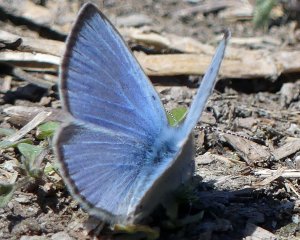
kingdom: Animalia
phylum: Arthropoda
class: Insecta
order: Lepidoptera
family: Lycaenidae
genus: Glaucopsyche
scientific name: Glaucopsyche lygdamus
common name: Silvery Blue
